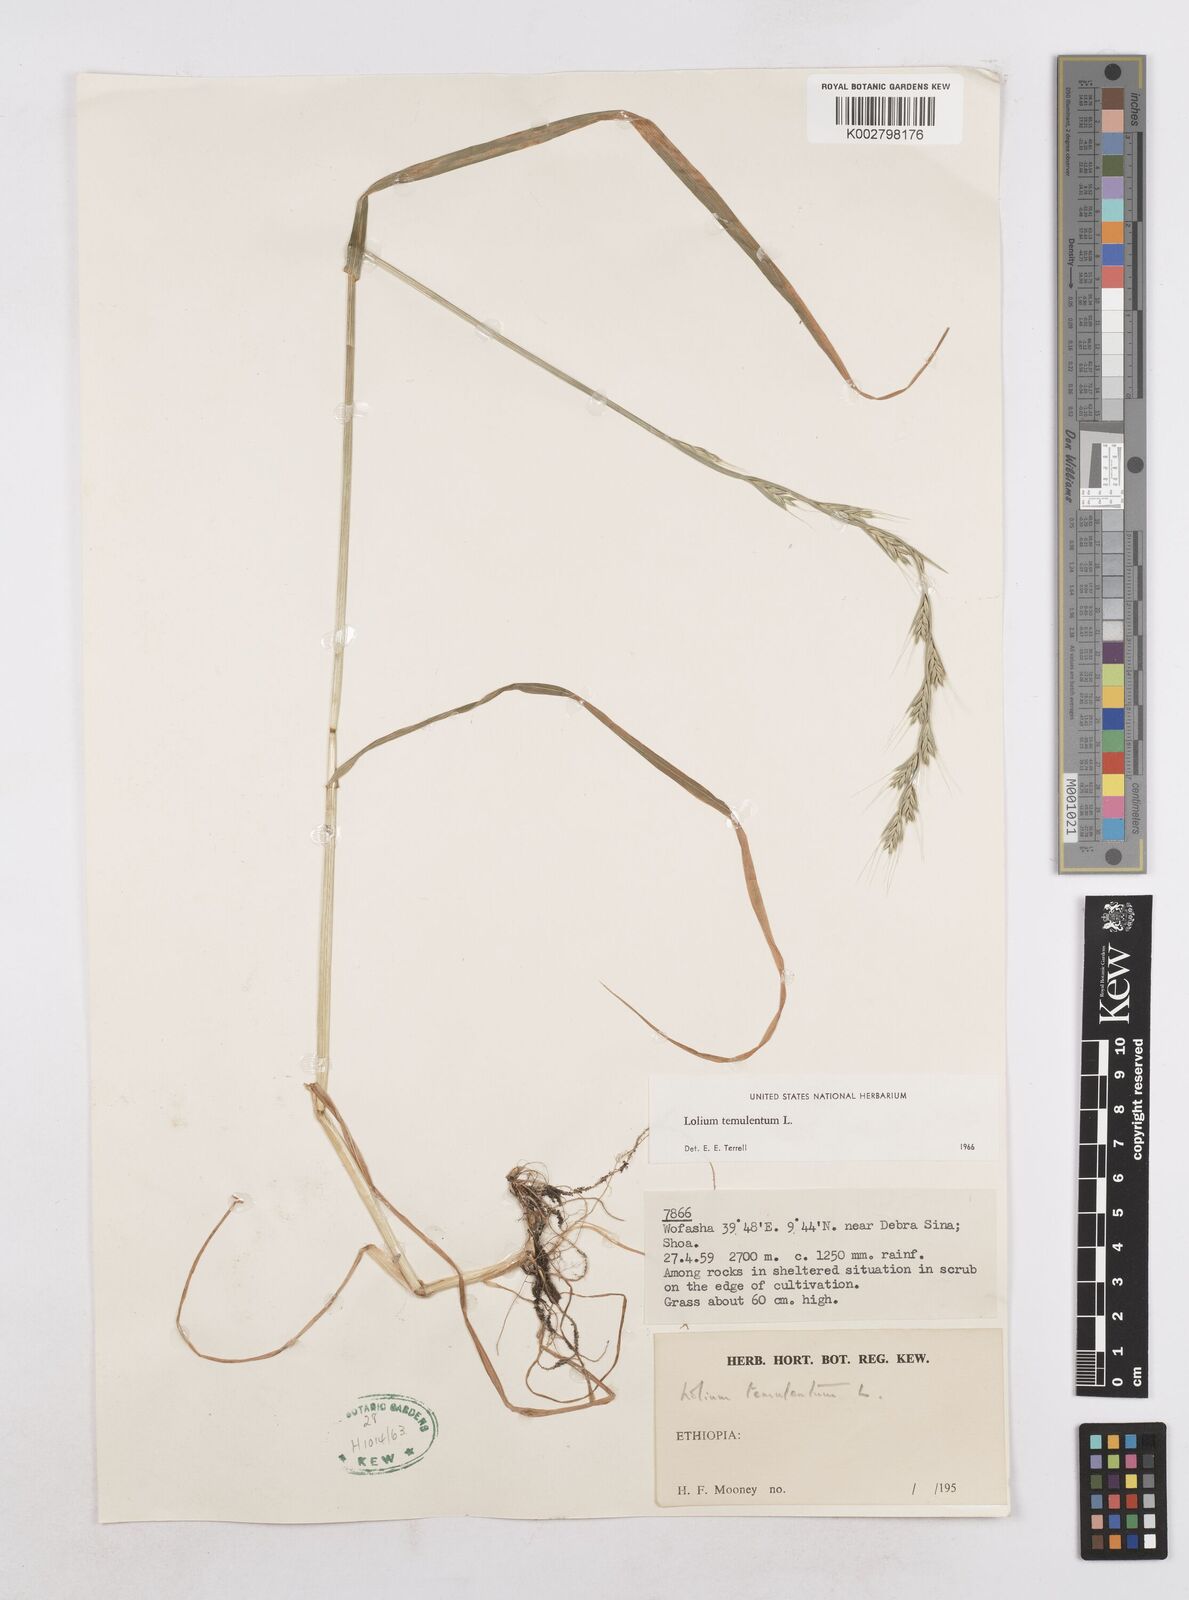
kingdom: Plantae
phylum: Tracheophyta
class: Liliopsida
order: Poales
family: Poaceae
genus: Lolium
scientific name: Lolium temulentum
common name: Darnel
